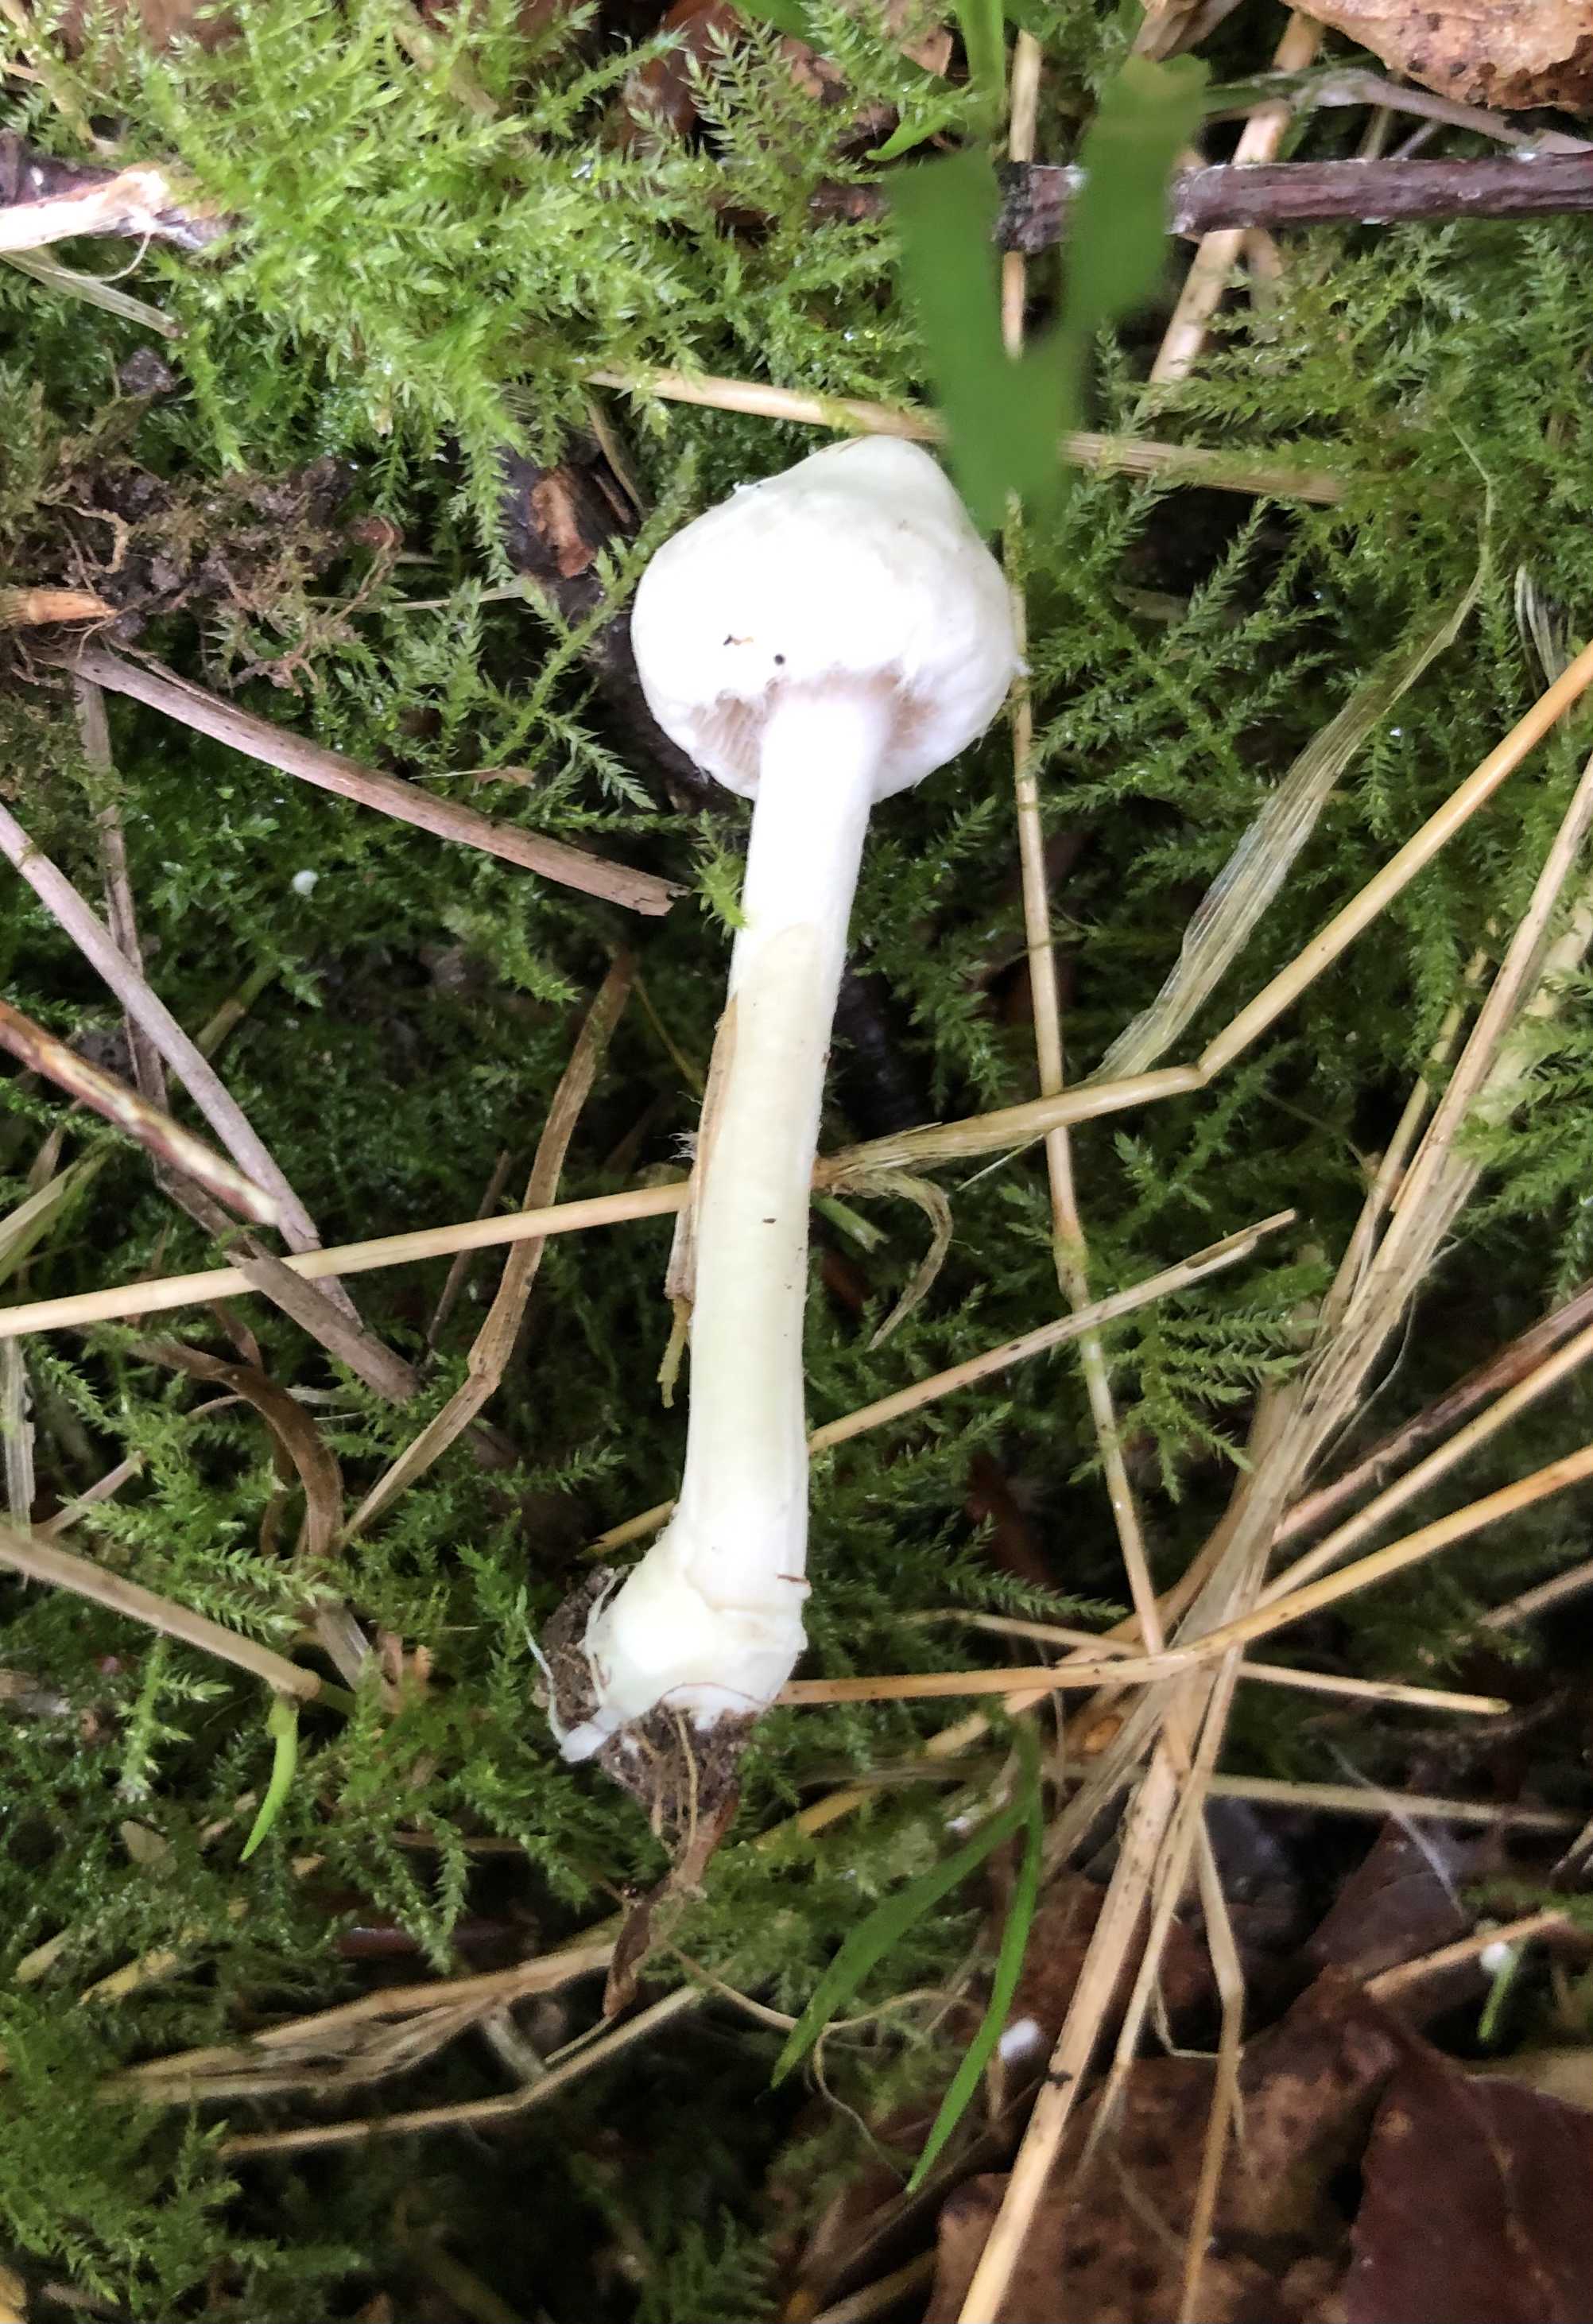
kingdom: Fungi
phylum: Basidiomycota
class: Agaricomycetes
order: Agaricales
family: Inocybaceae
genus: Inocybe
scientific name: Inocybe
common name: trævlhat
